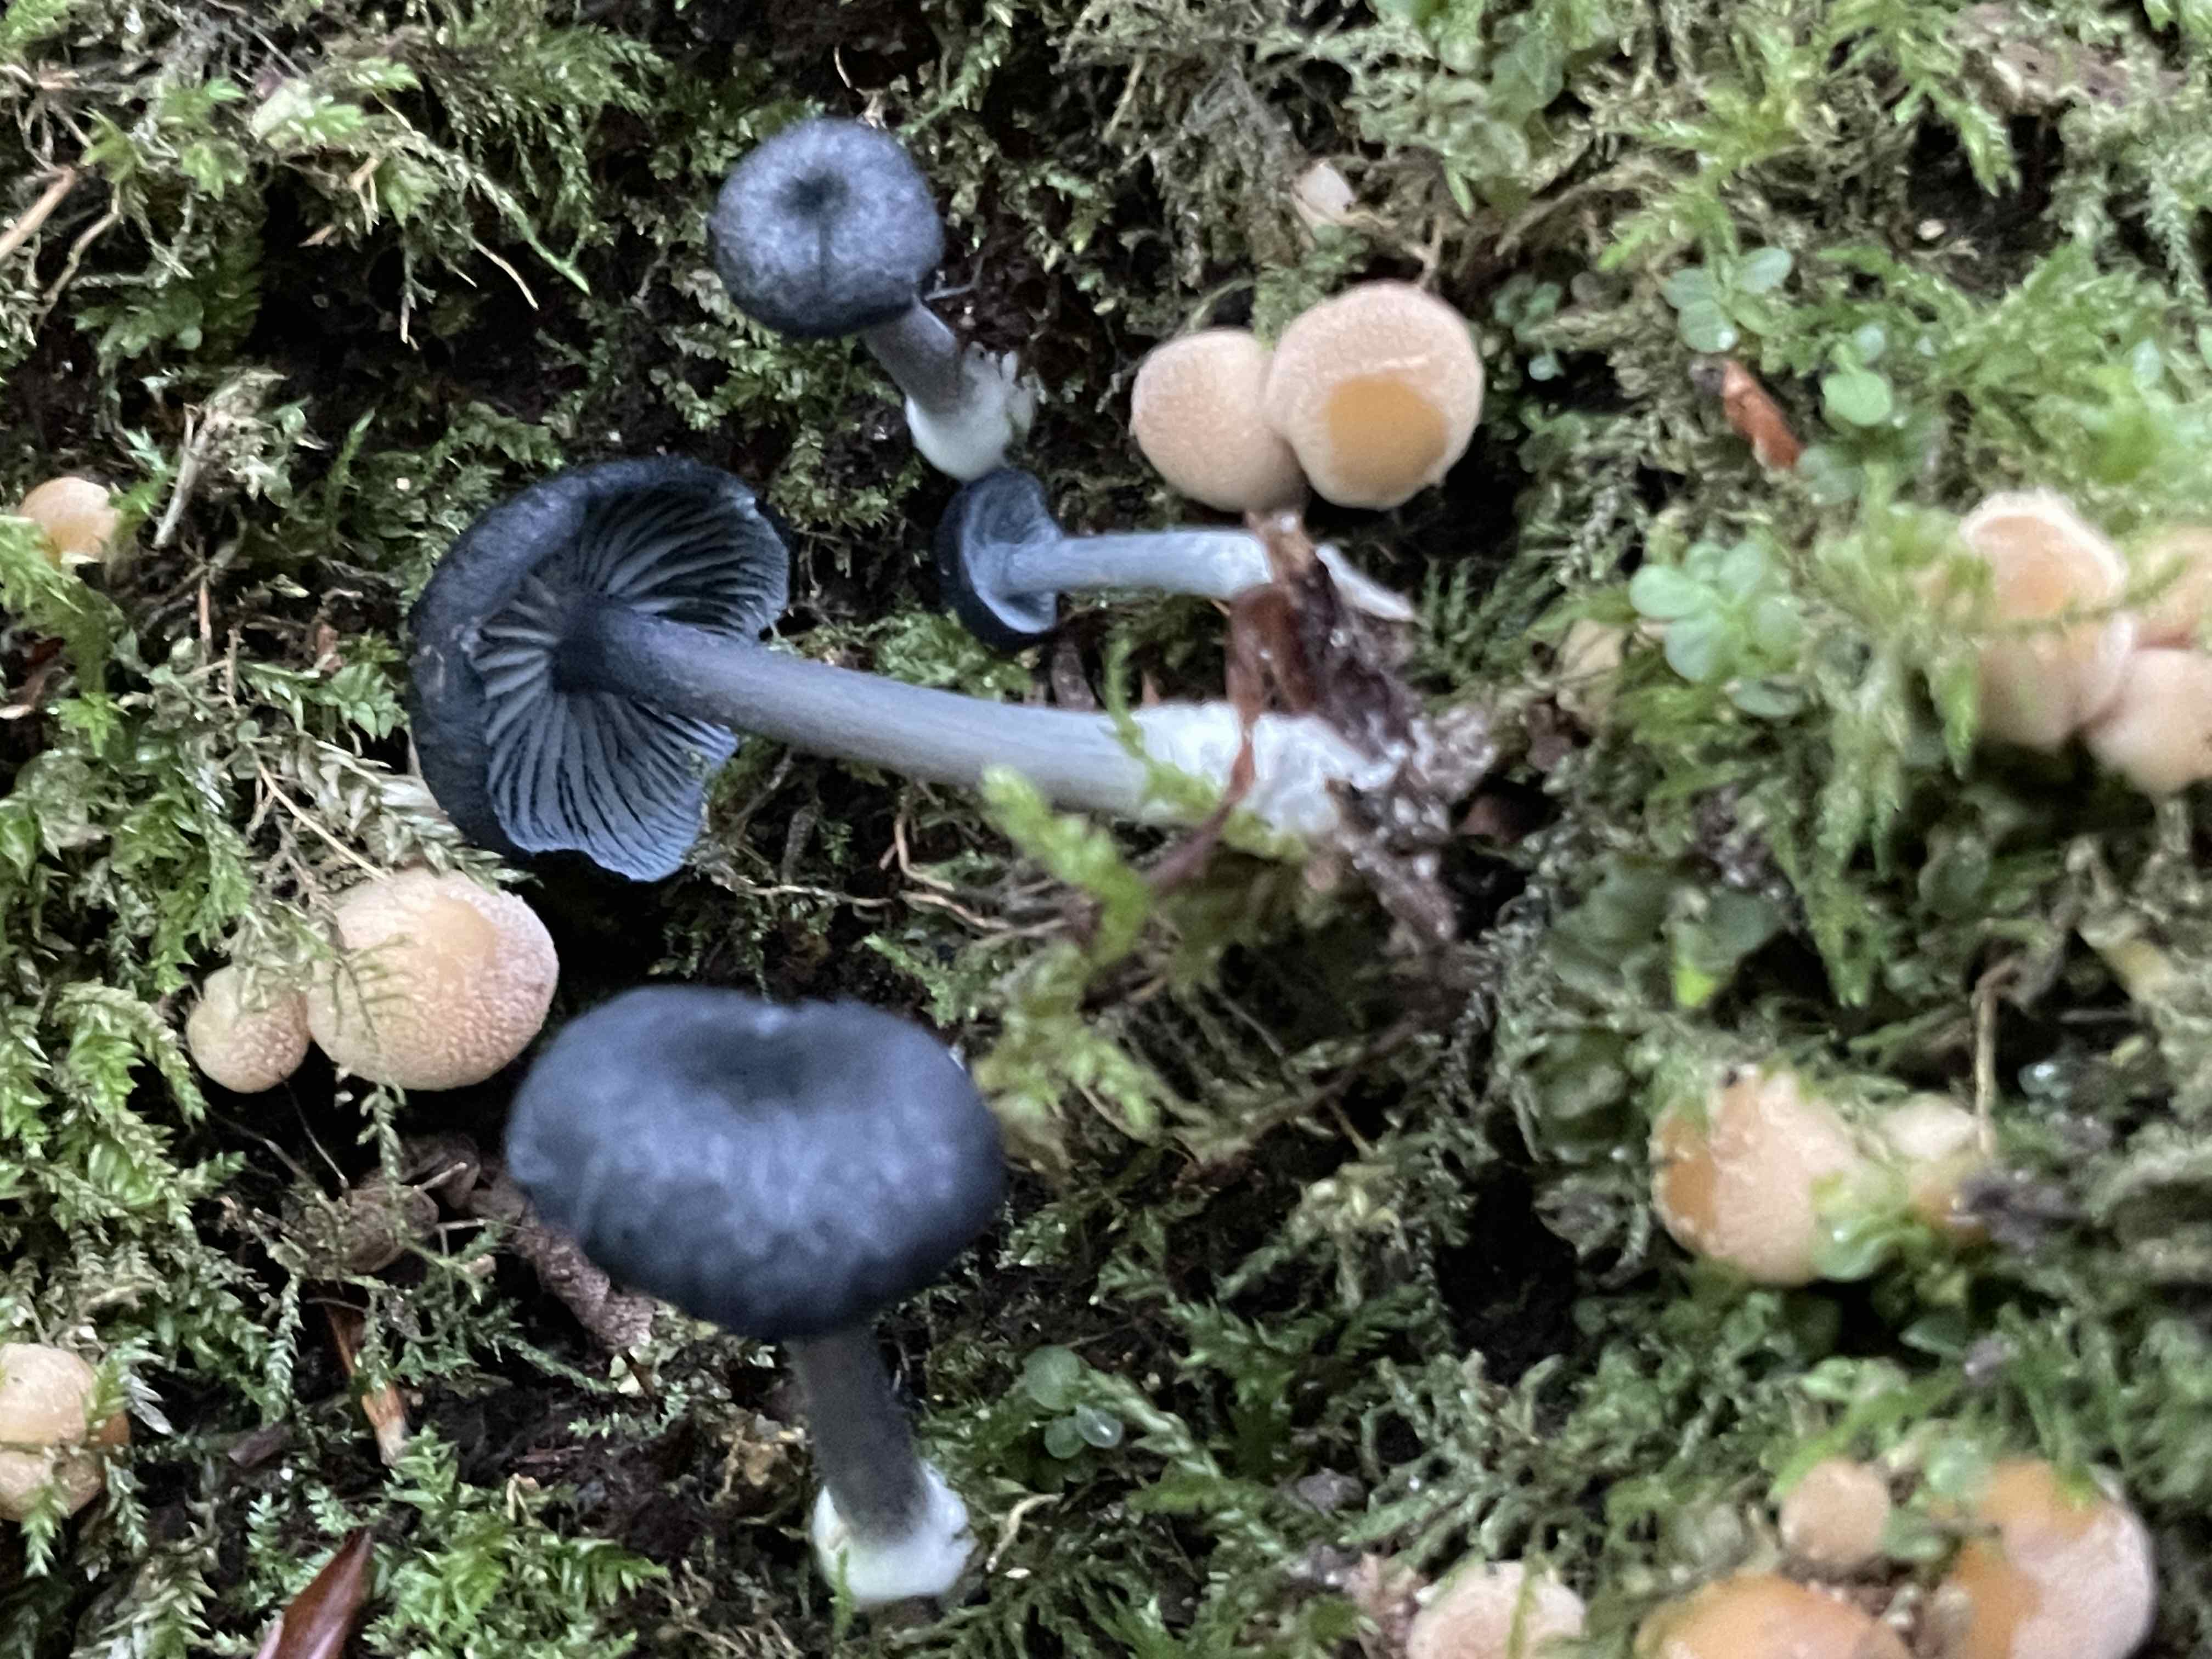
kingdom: Fungi
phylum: Basidiomycota
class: Agaricomycetes
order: Agaricales
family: Entolomataceae
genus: Entoloma
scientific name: Entoloma
